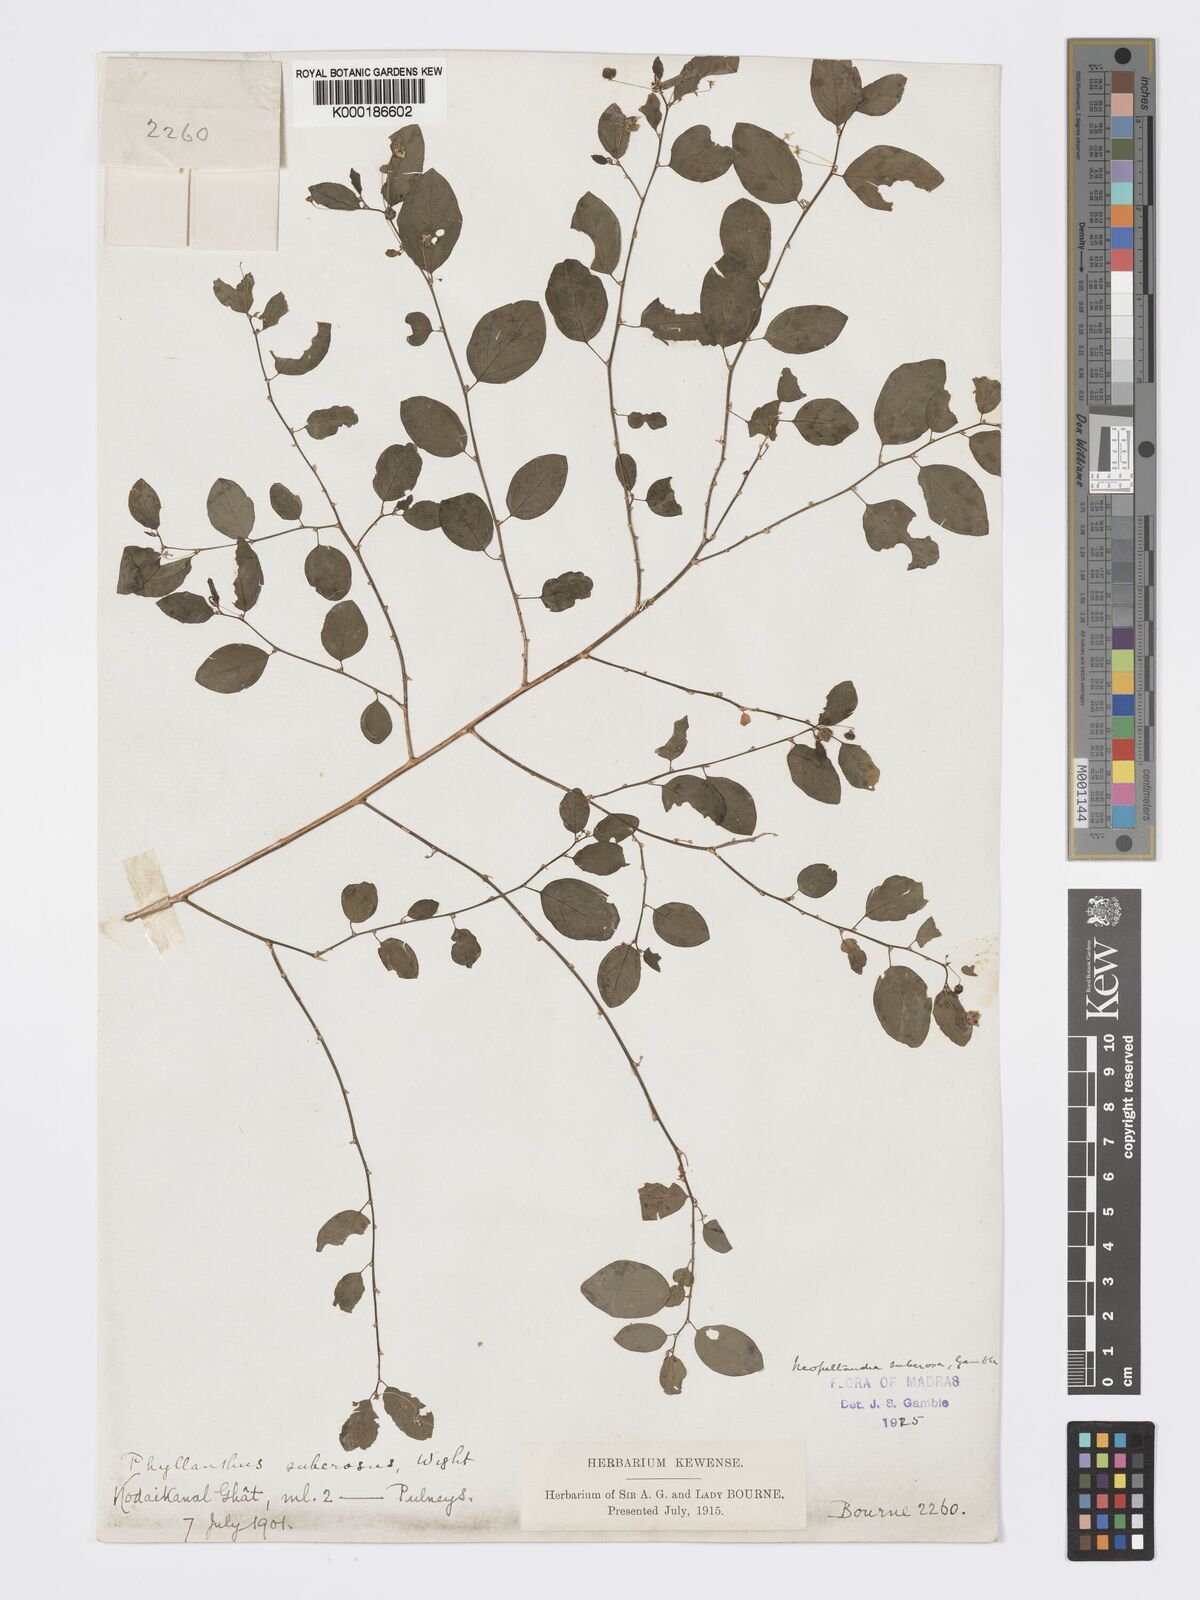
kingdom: Plantae
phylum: Tracheophyta
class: Magnoliopsida
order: Malpighiales
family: Phyllanthaceae
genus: Meineckia
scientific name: Meineckia parvifolia
